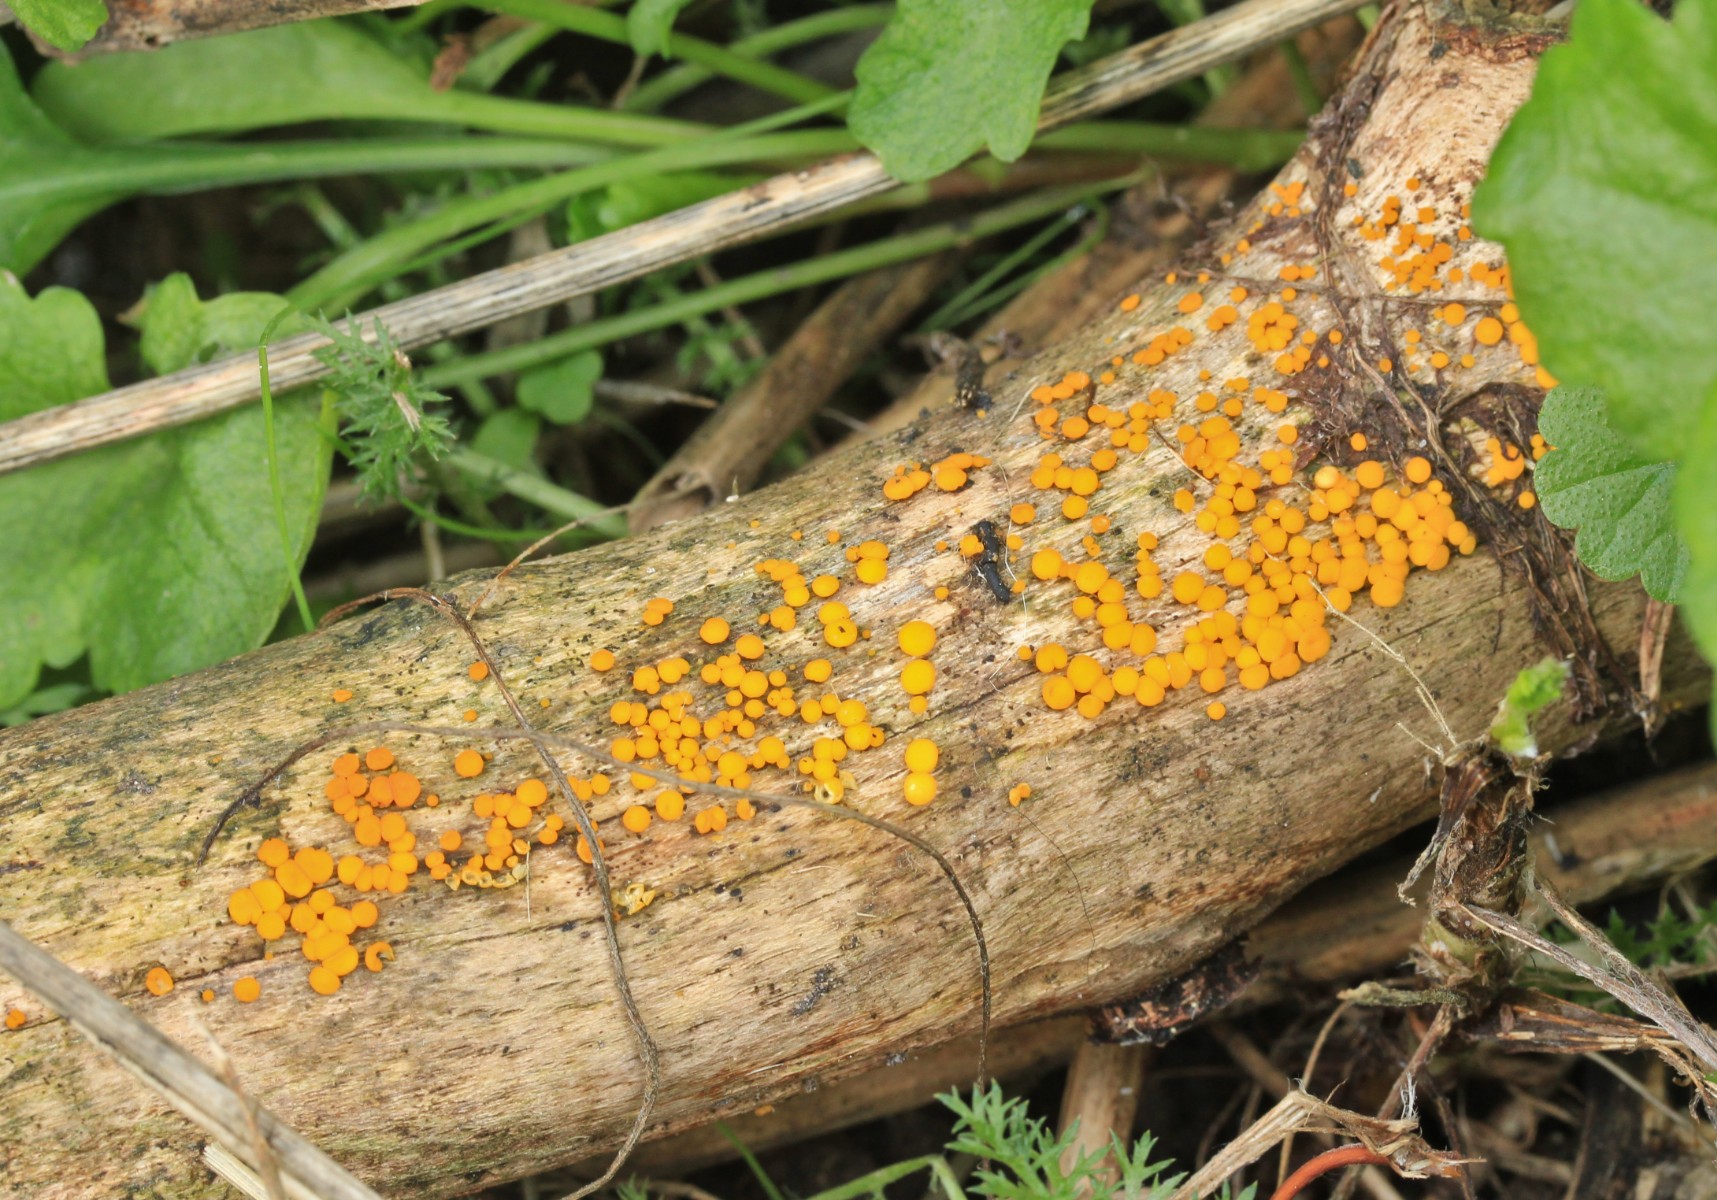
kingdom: Fungi
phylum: Ascomycota
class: Leotiomycetes
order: Helotiales
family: Pezizellaceae
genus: Calycina
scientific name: Calycina citrina
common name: almindelig gulskive
